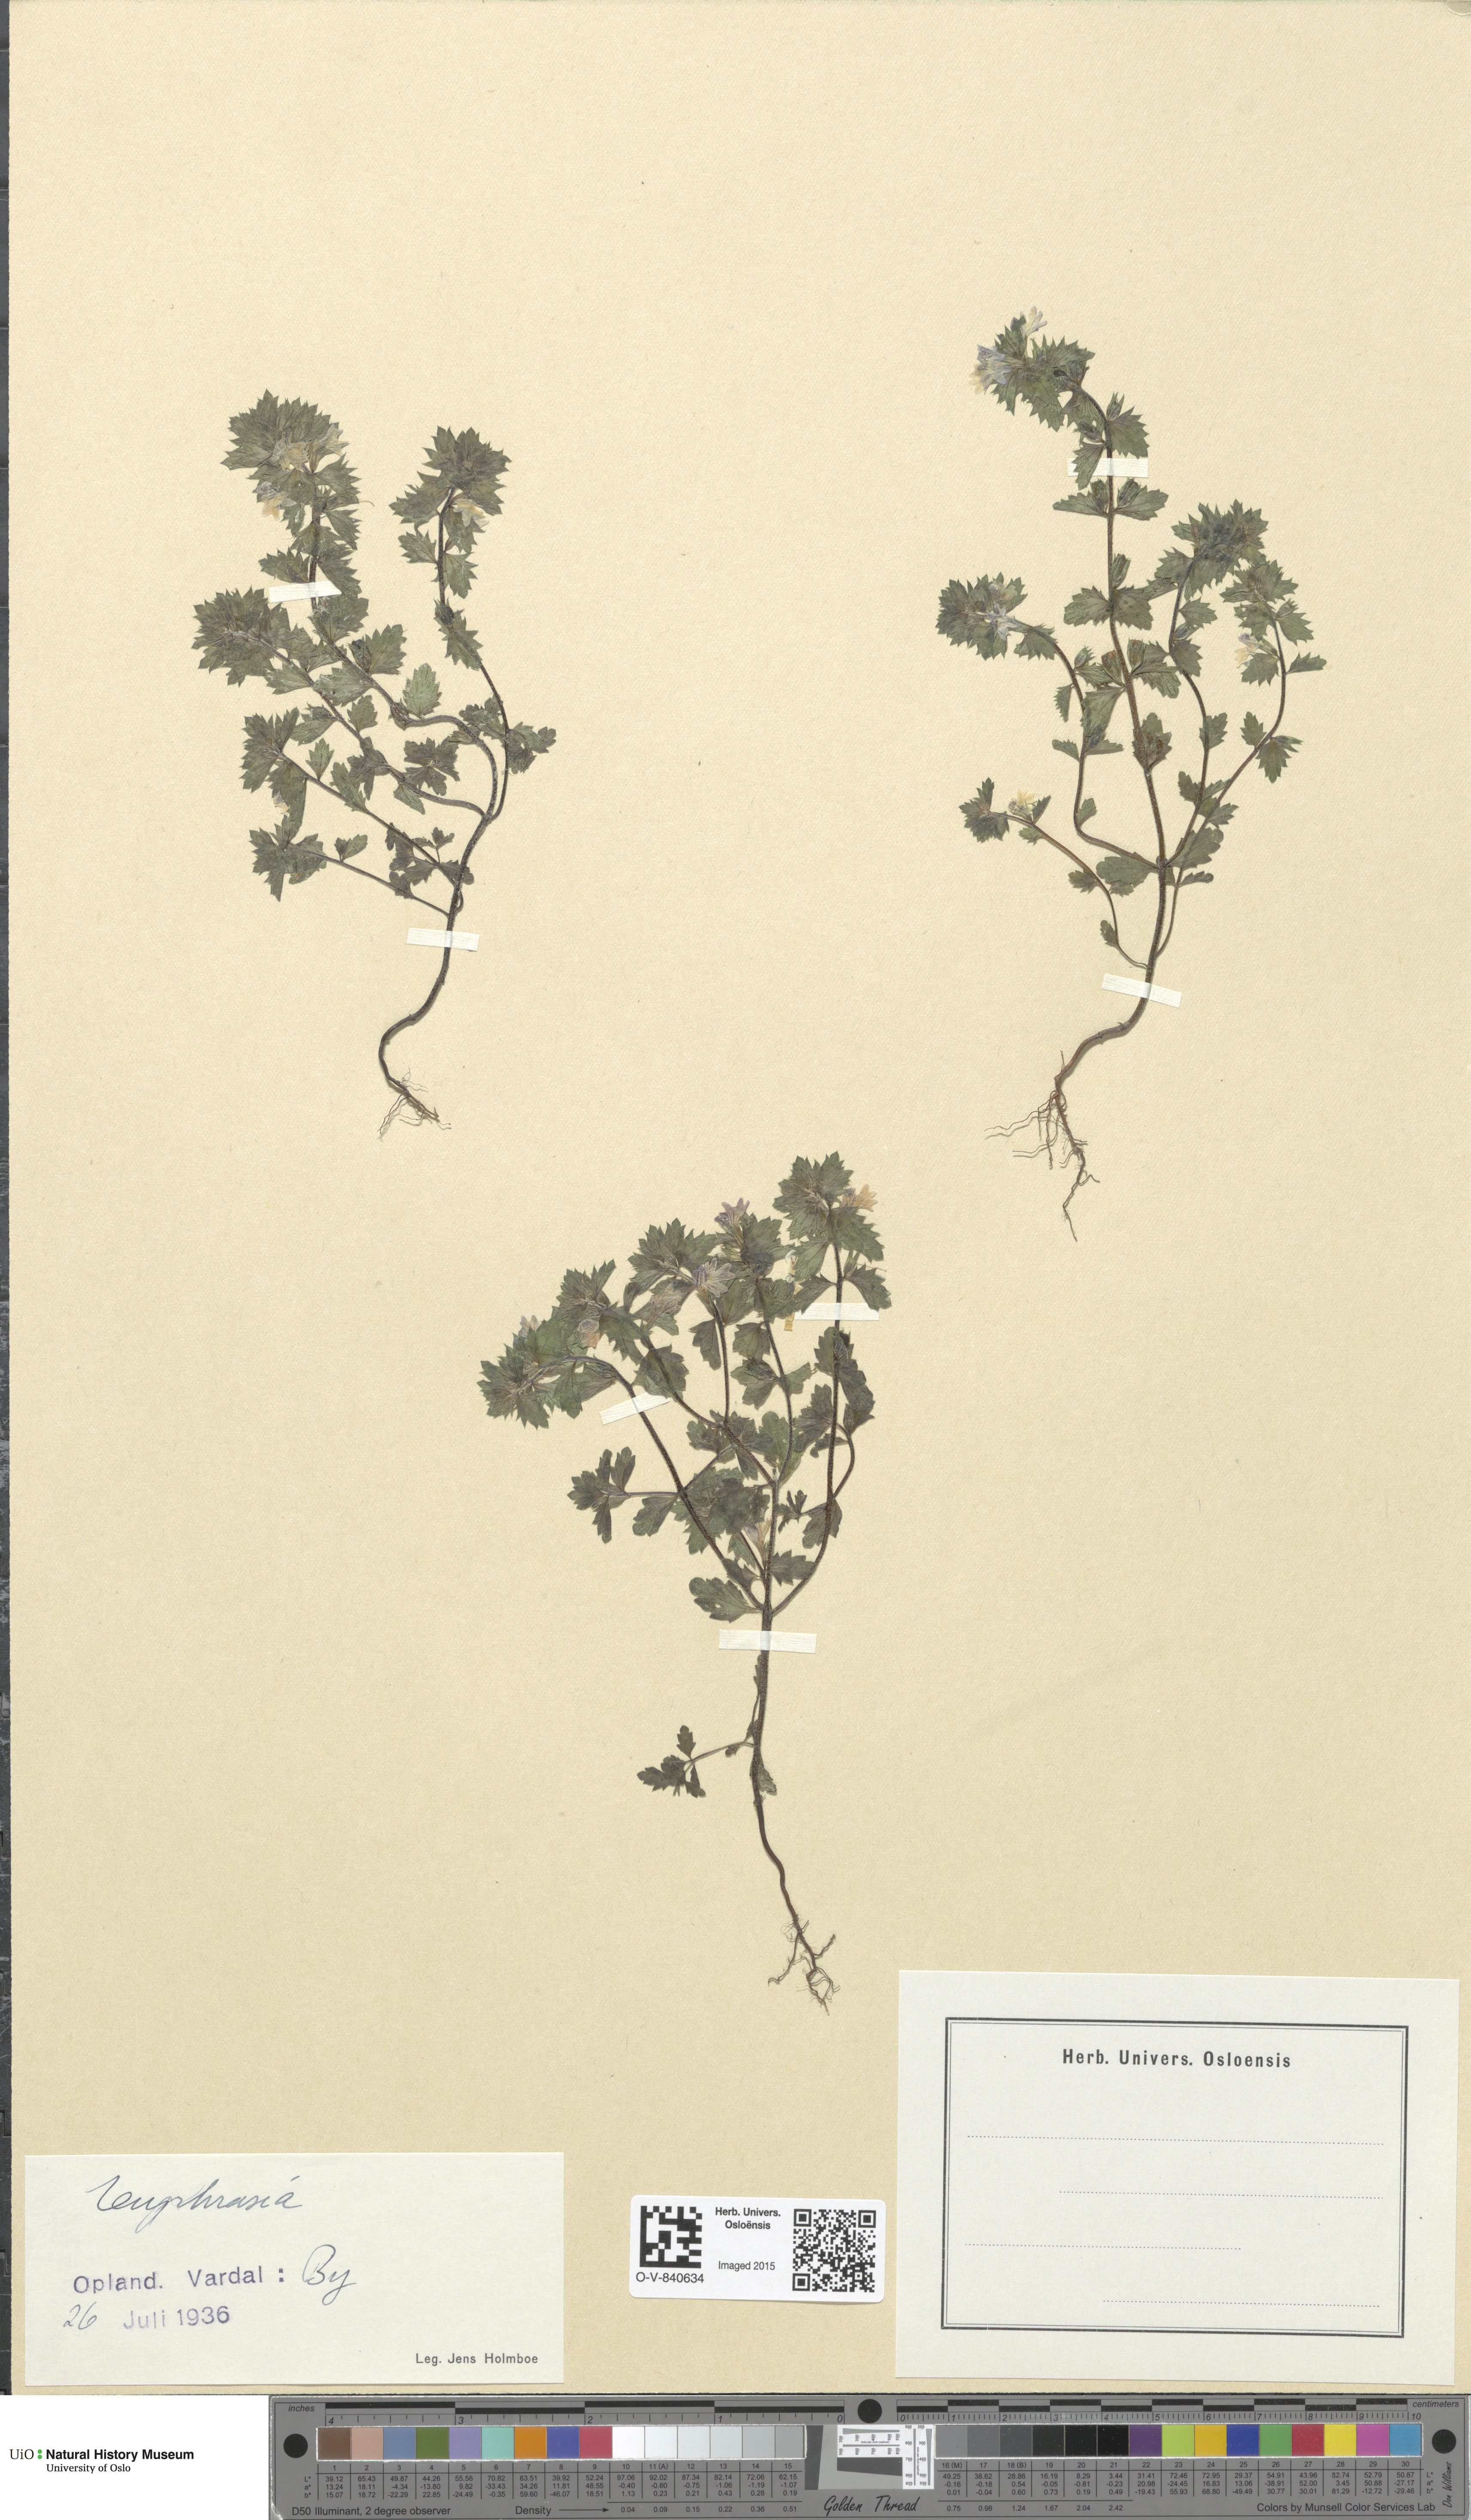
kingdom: Plantae
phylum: Tracheophyta
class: Magnoliopsida
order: Lamiales
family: Orobanchaceae
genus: Euphrasia
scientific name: Euphrasia
